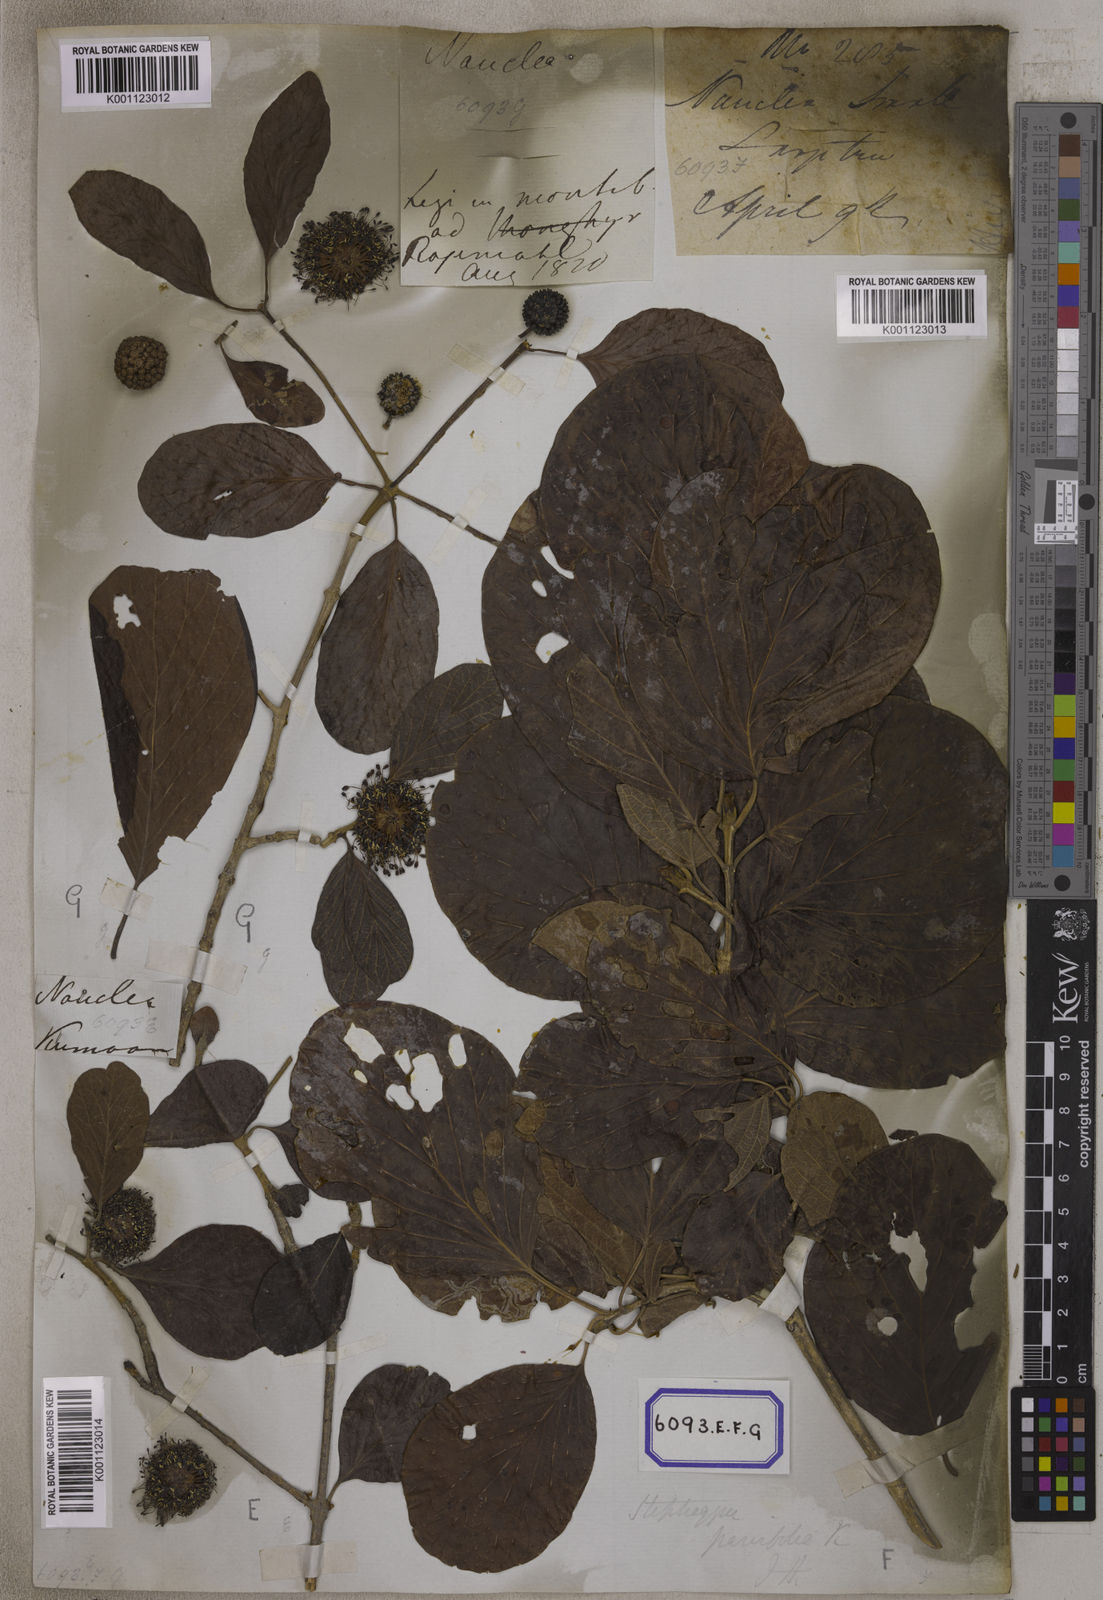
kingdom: Plantae
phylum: Tracheophyta
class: Magnoliopsida
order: Gentianales
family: Rubiaceae
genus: Nauclea
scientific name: Nauclea
